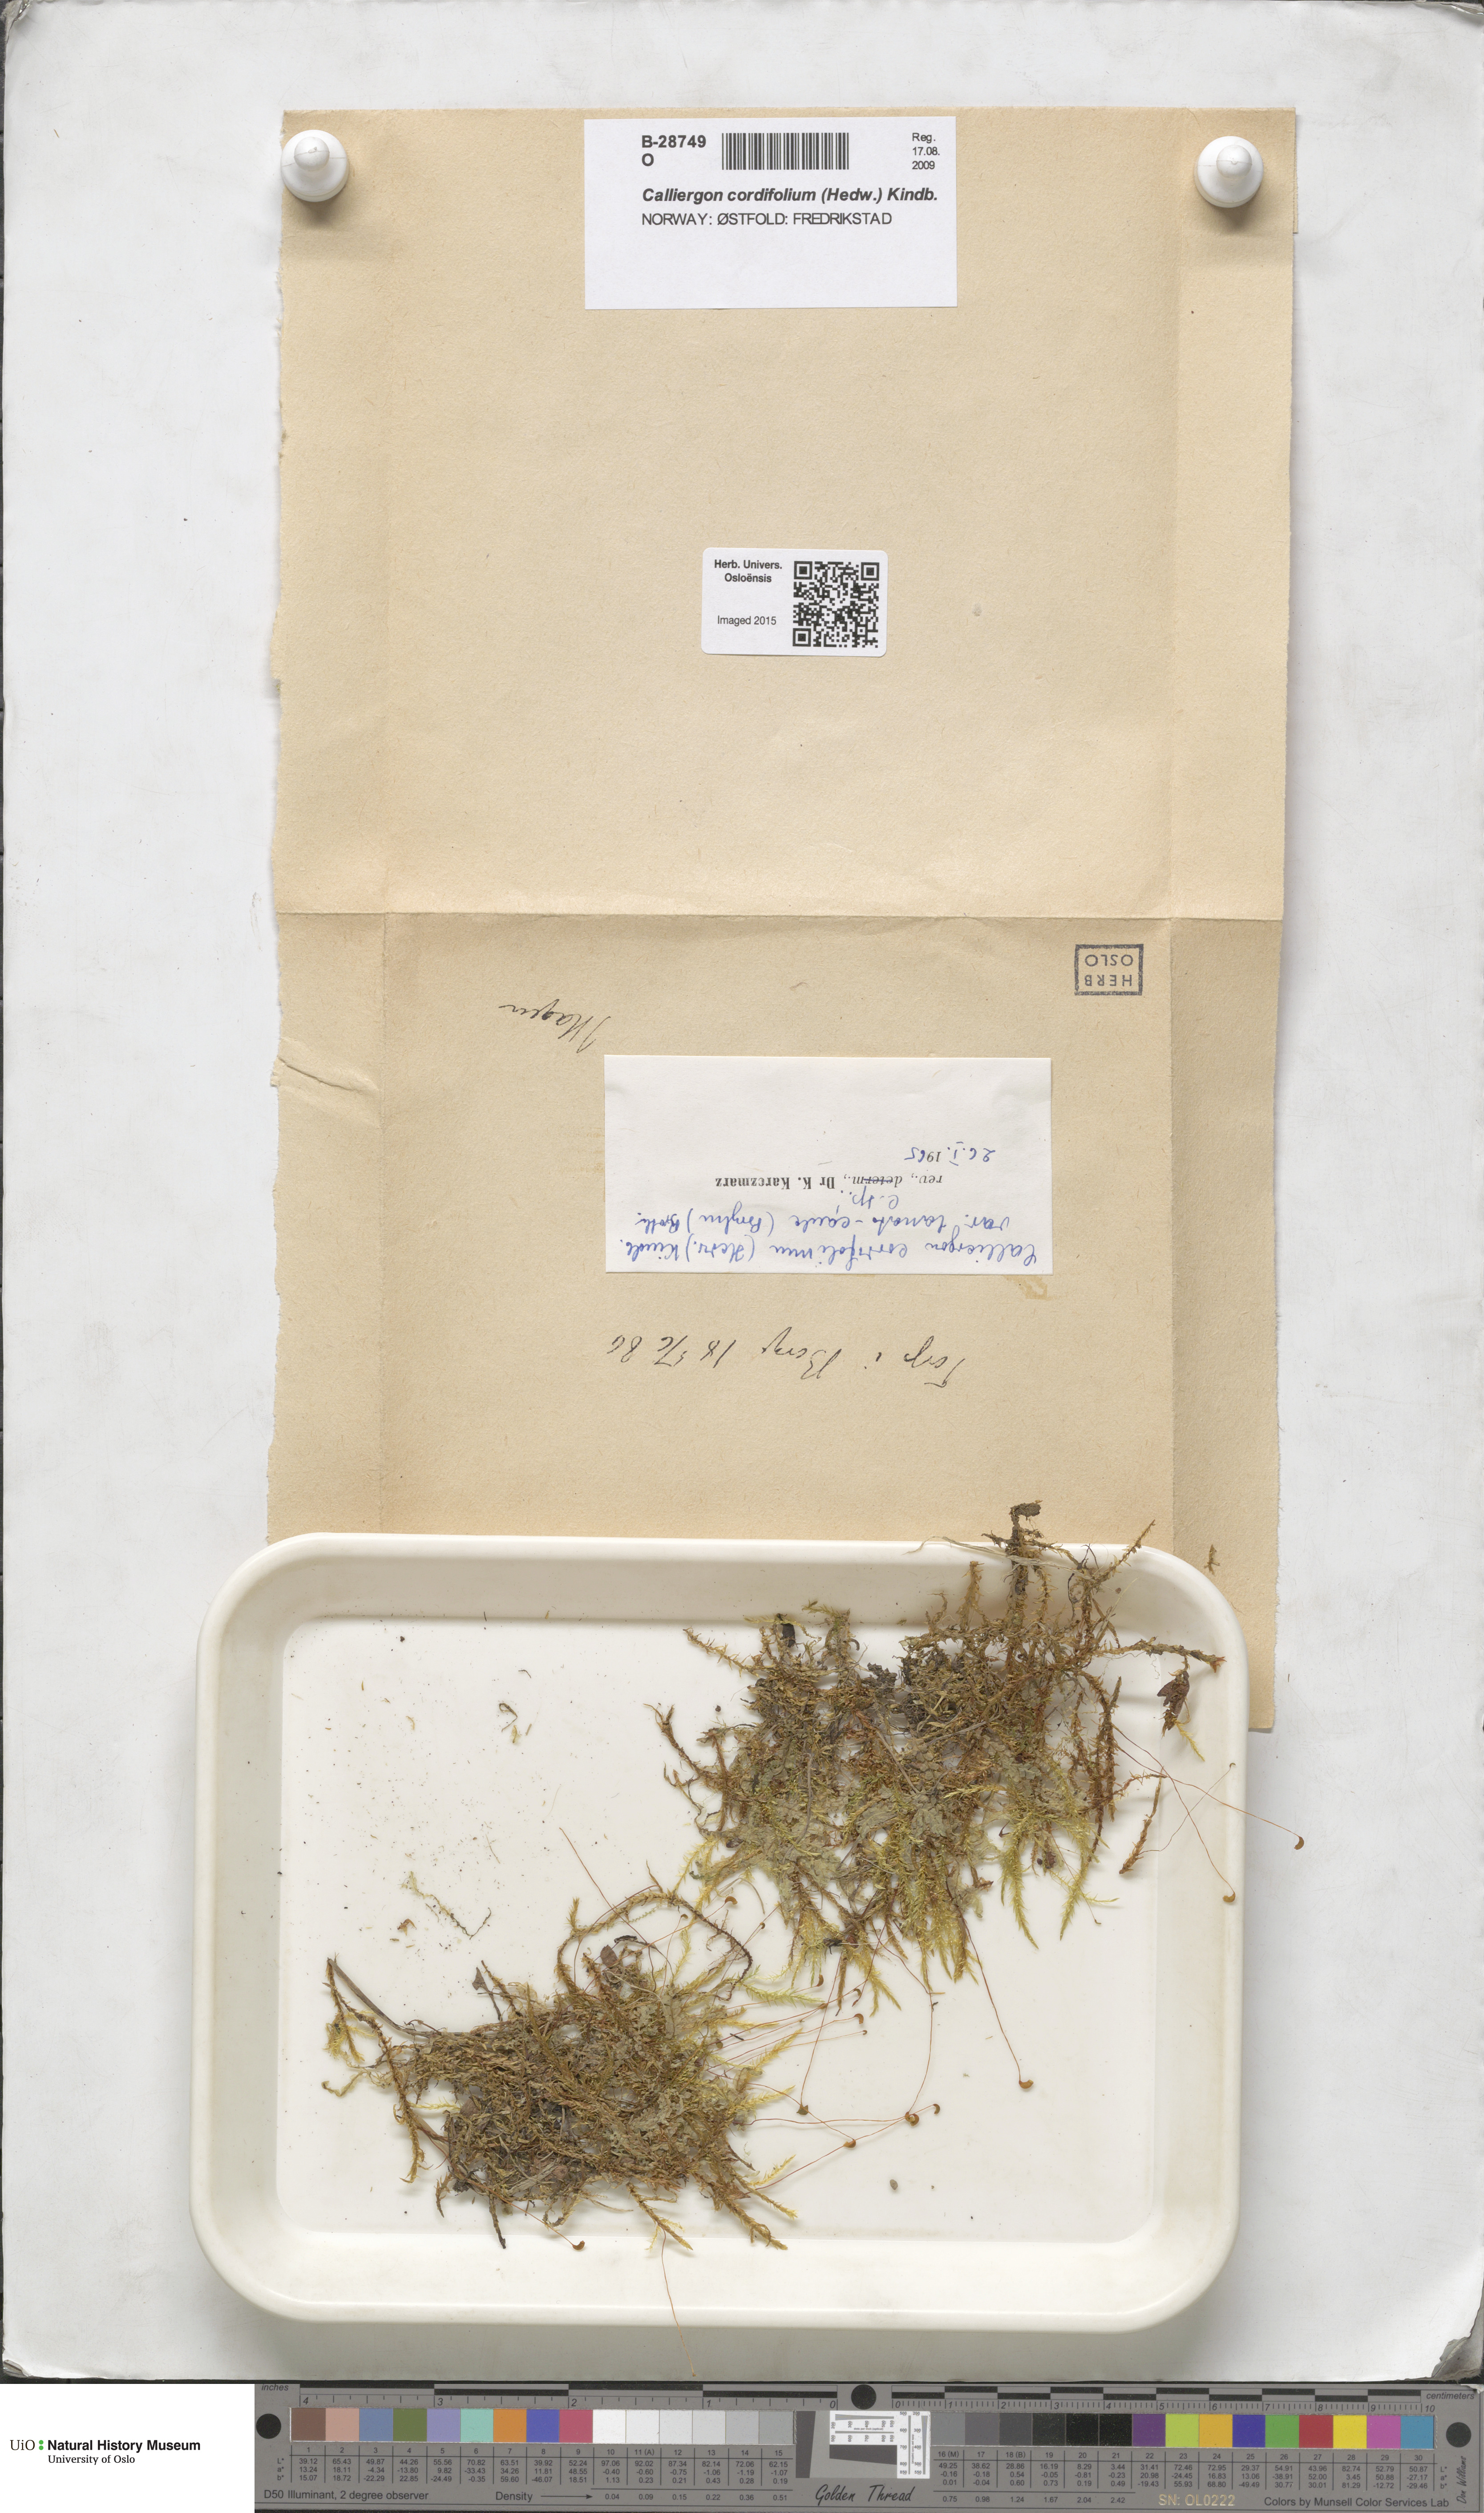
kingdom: Plantae
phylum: Bryophyta
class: Bryopsida
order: Hypnales
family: Calliergonaceae
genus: Calliergon
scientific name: Calliergon cordifolium
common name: Heart-leaved spear moss
